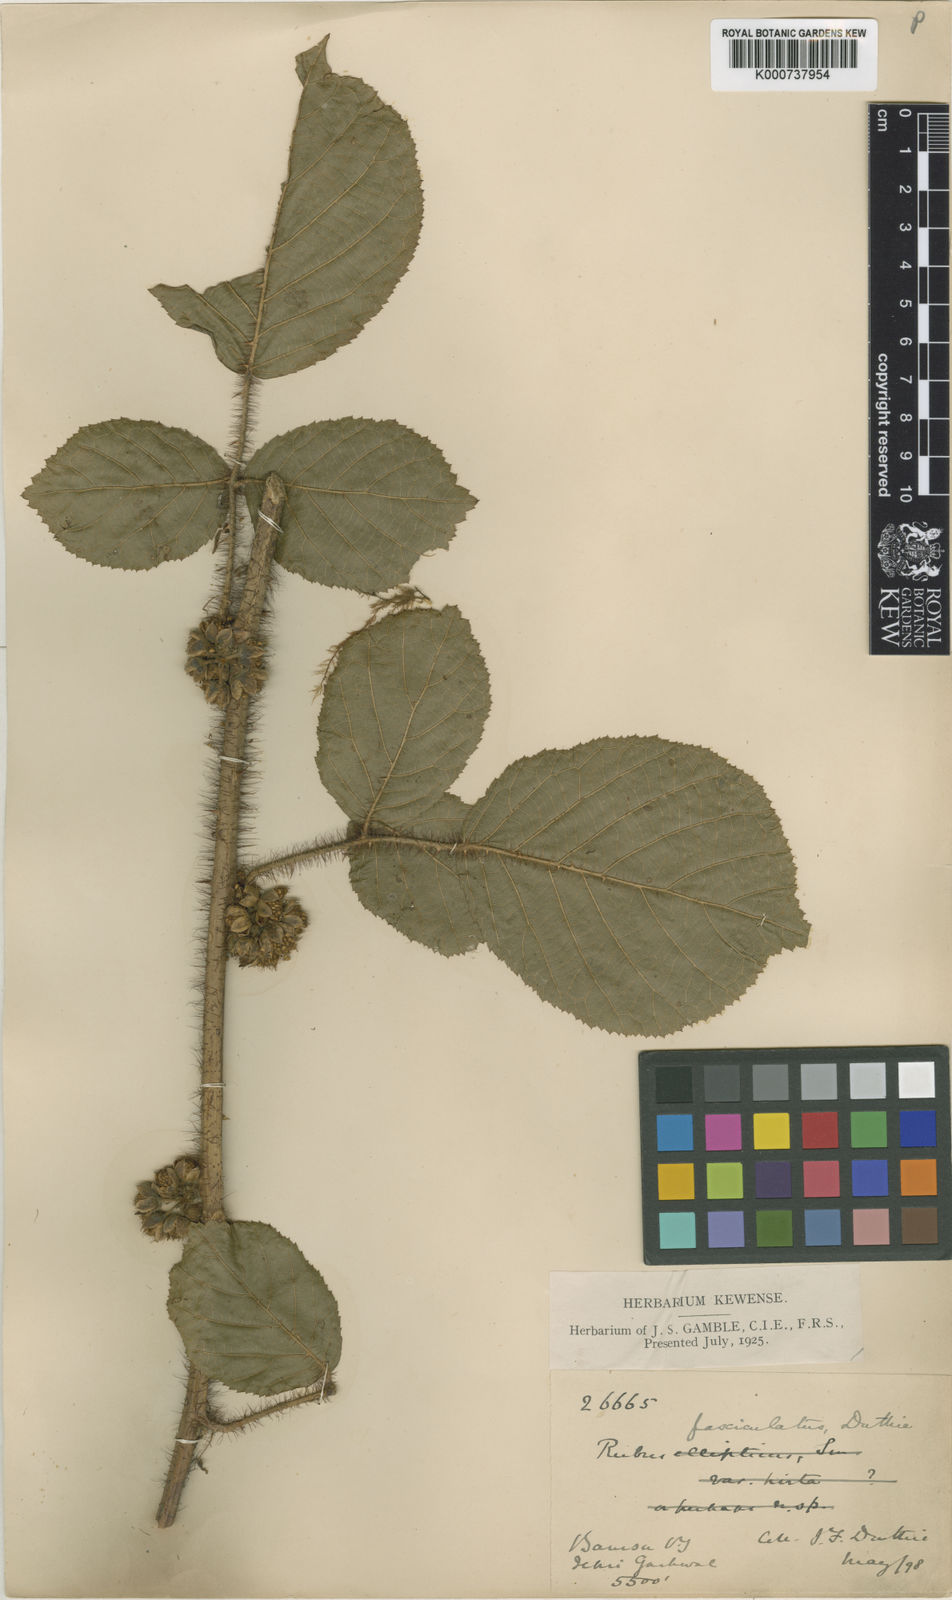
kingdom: Plantae
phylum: Tracheophyta
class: Magnoliopsida
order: Rosales
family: Rosaceae
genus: Rubus
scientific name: Rubus ellipticus
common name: Cheeseberry
